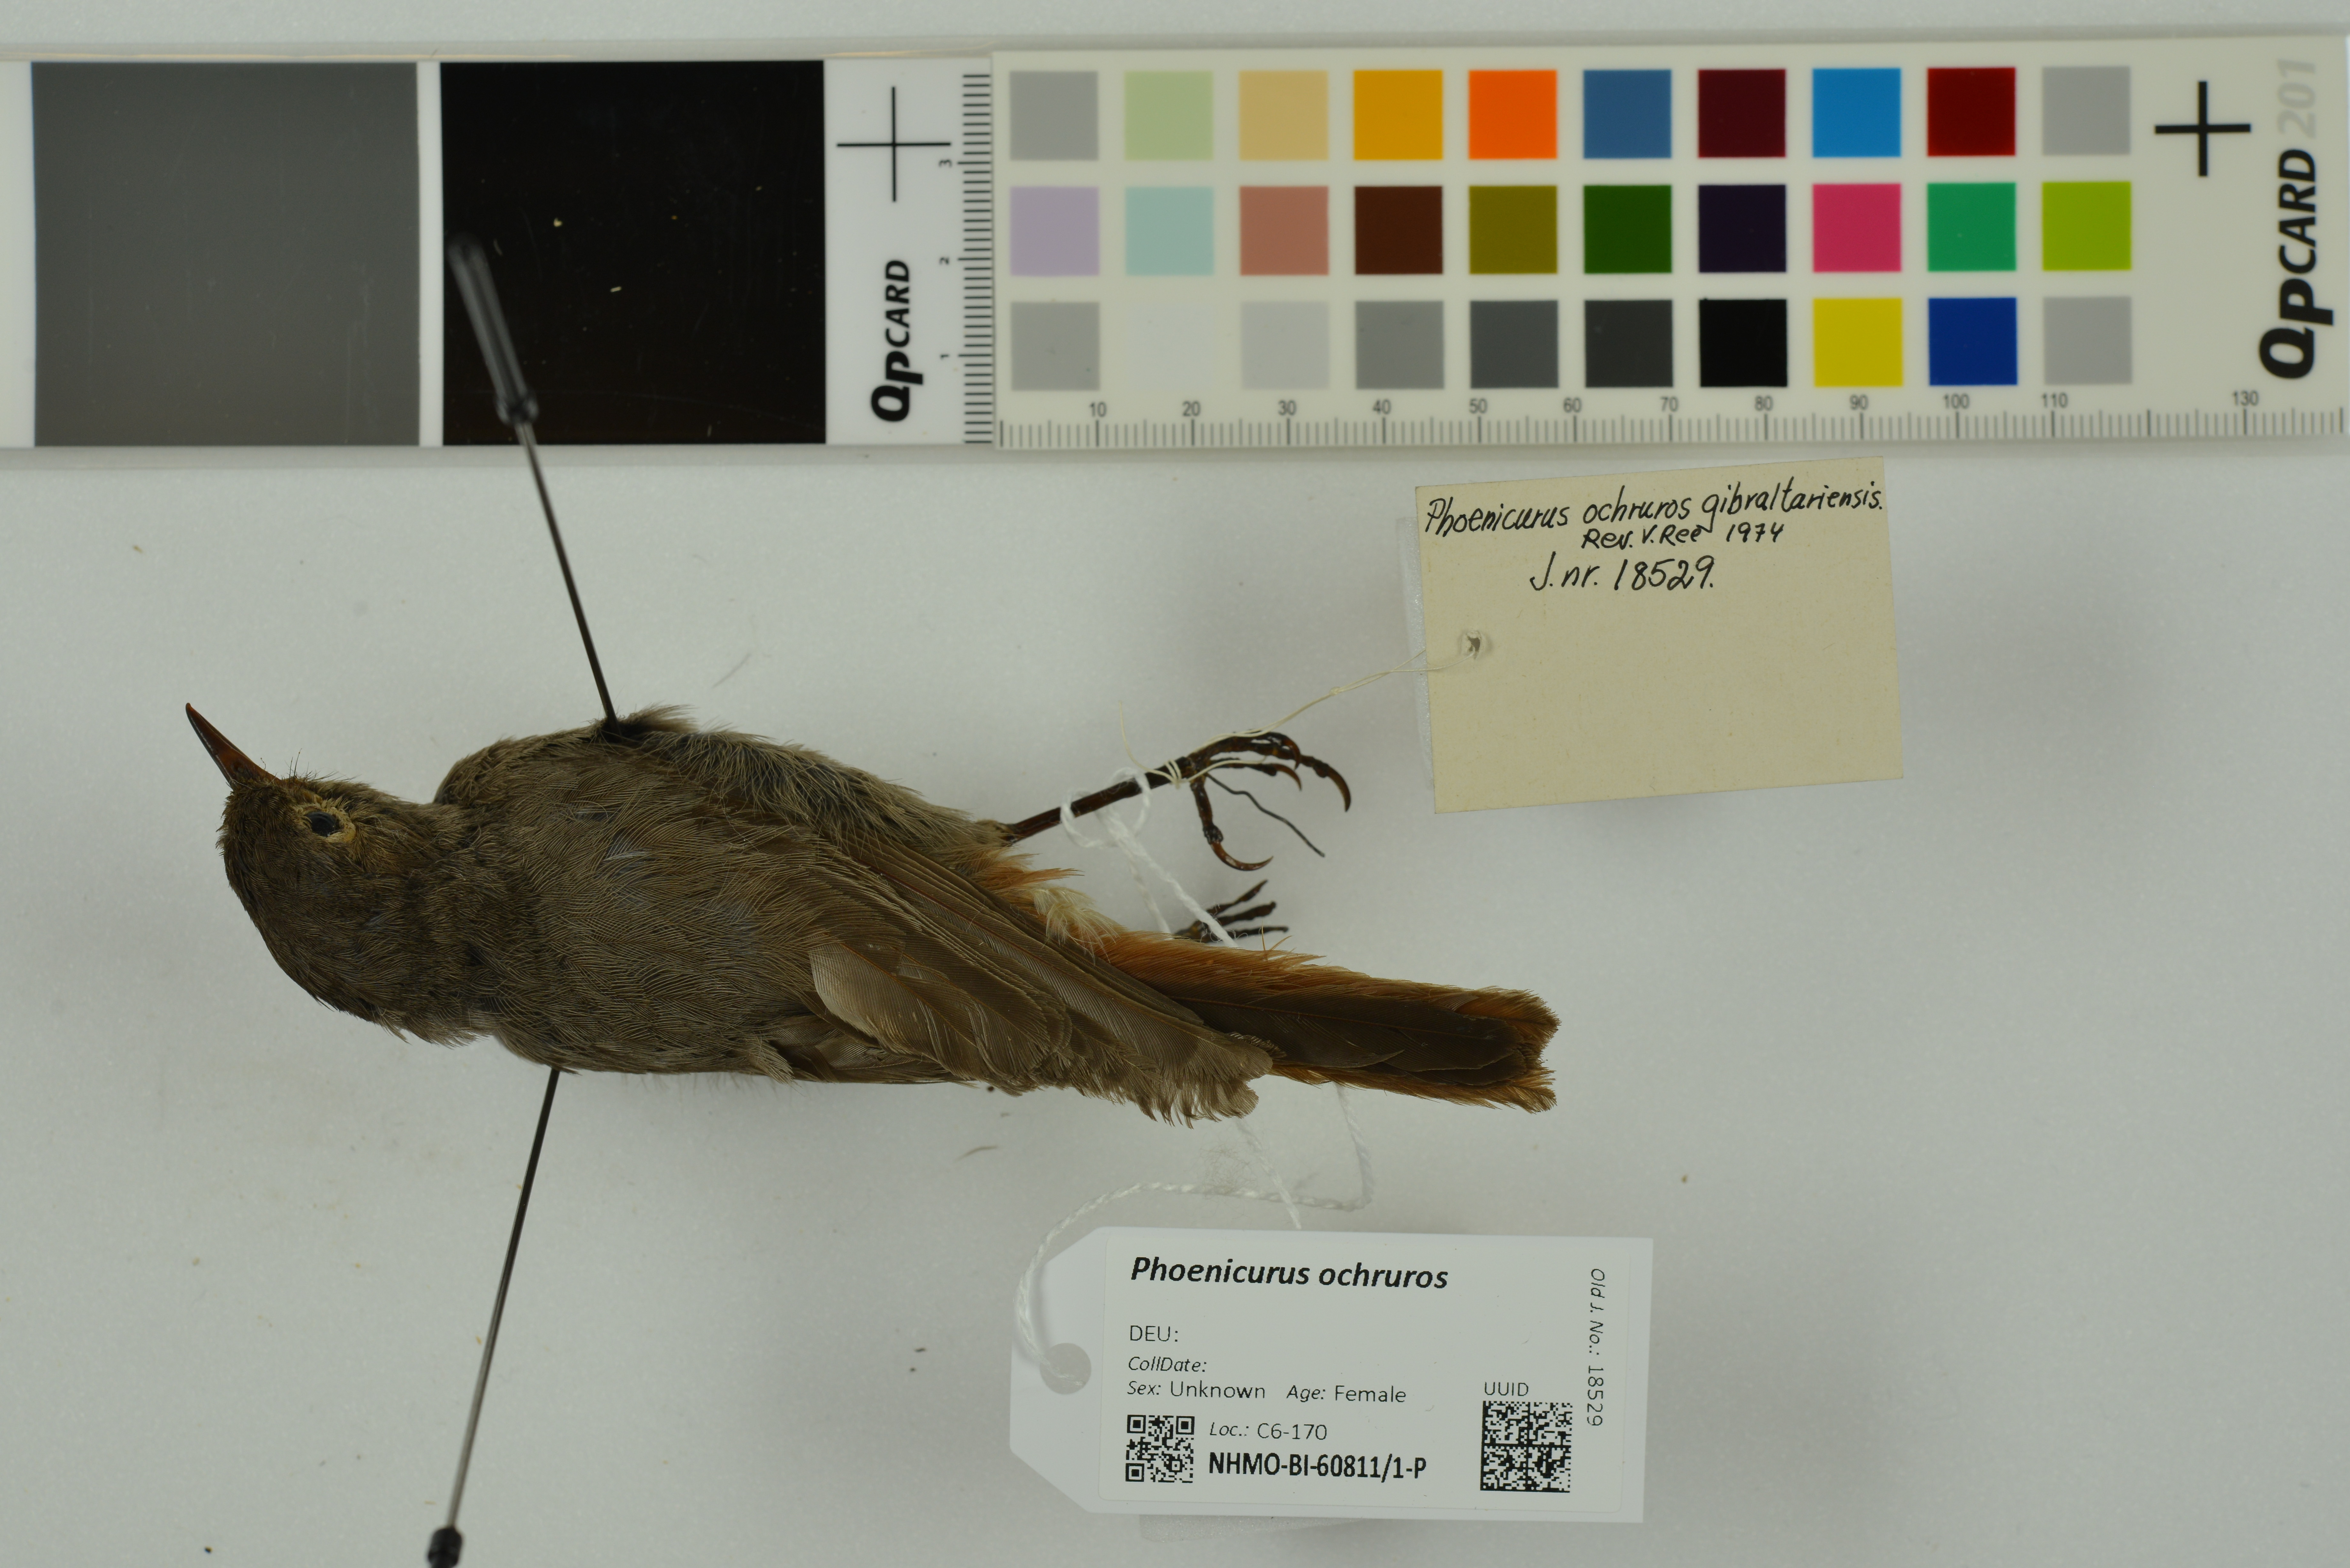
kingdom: Animalia
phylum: Chordata
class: Aves
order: Passeriformes
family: Muscicapidae
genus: Phoenicurus
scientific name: Phoenicurus ochruros
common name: Black redstart
